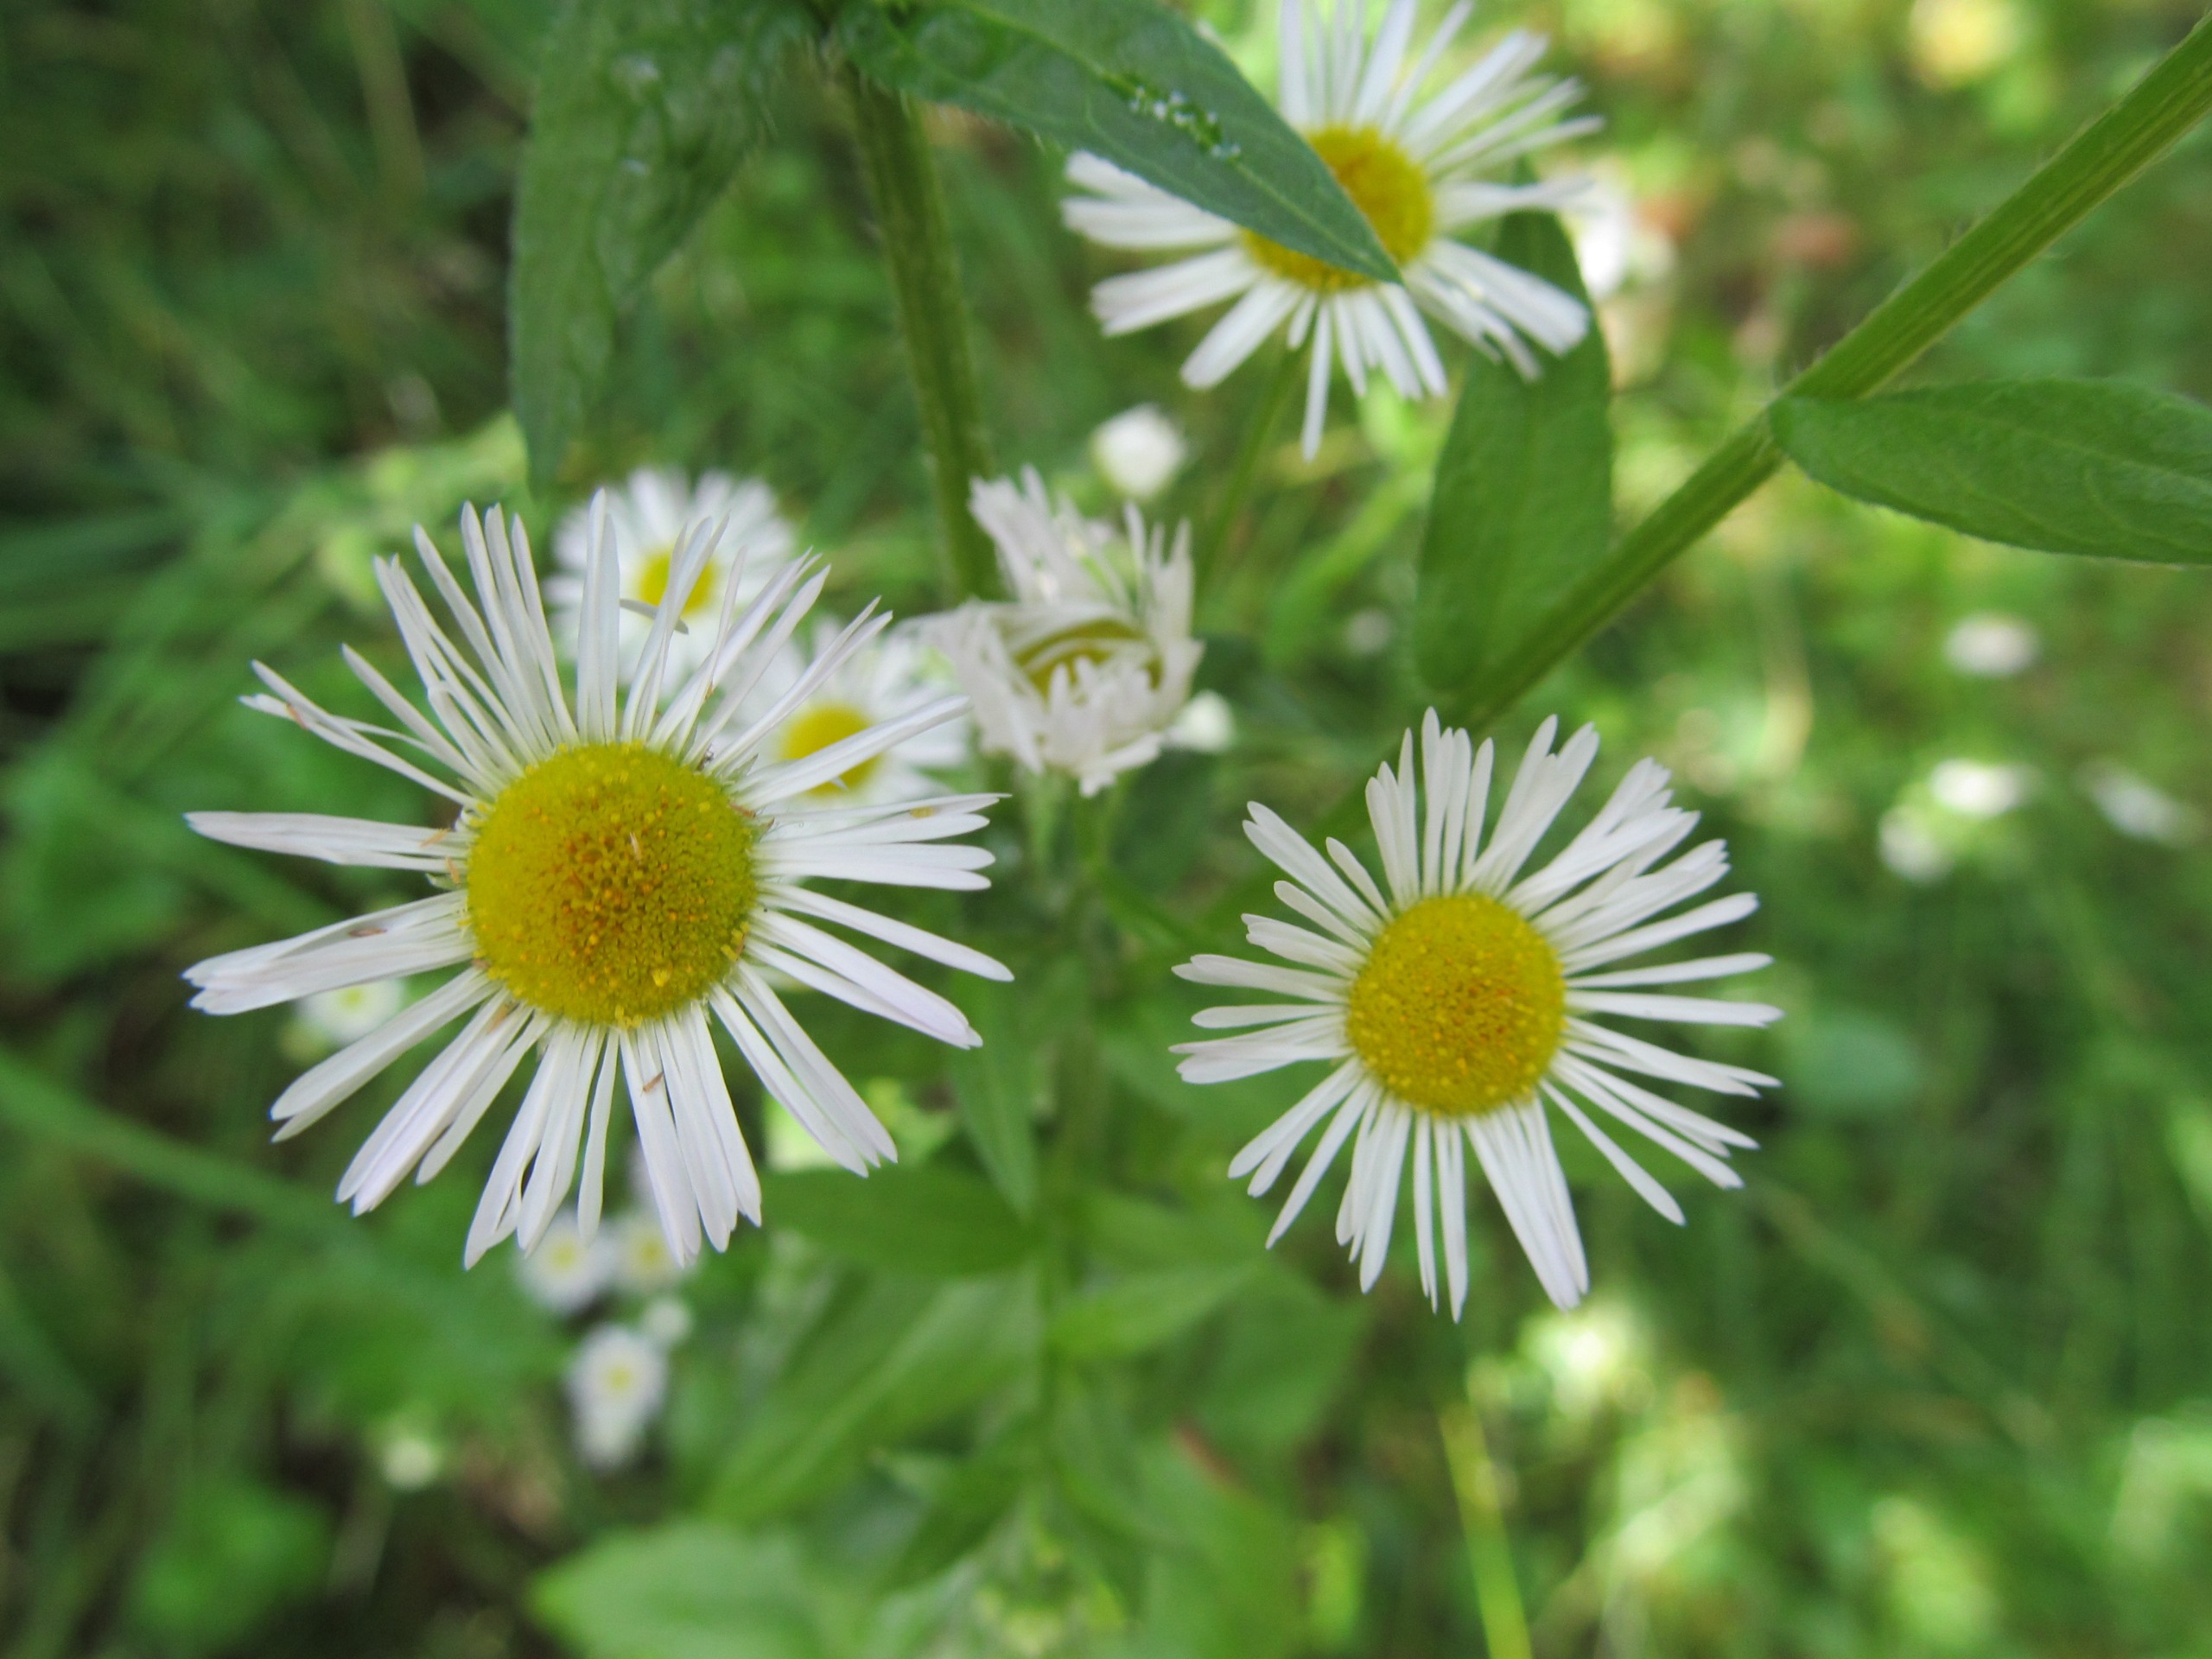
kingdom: Plantae
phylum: Tracheophyta
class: Magnoliopsida
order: Asterales
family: Asteraceae
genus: Erigeron
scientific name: Erigeron annuus
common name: Smalstråle
